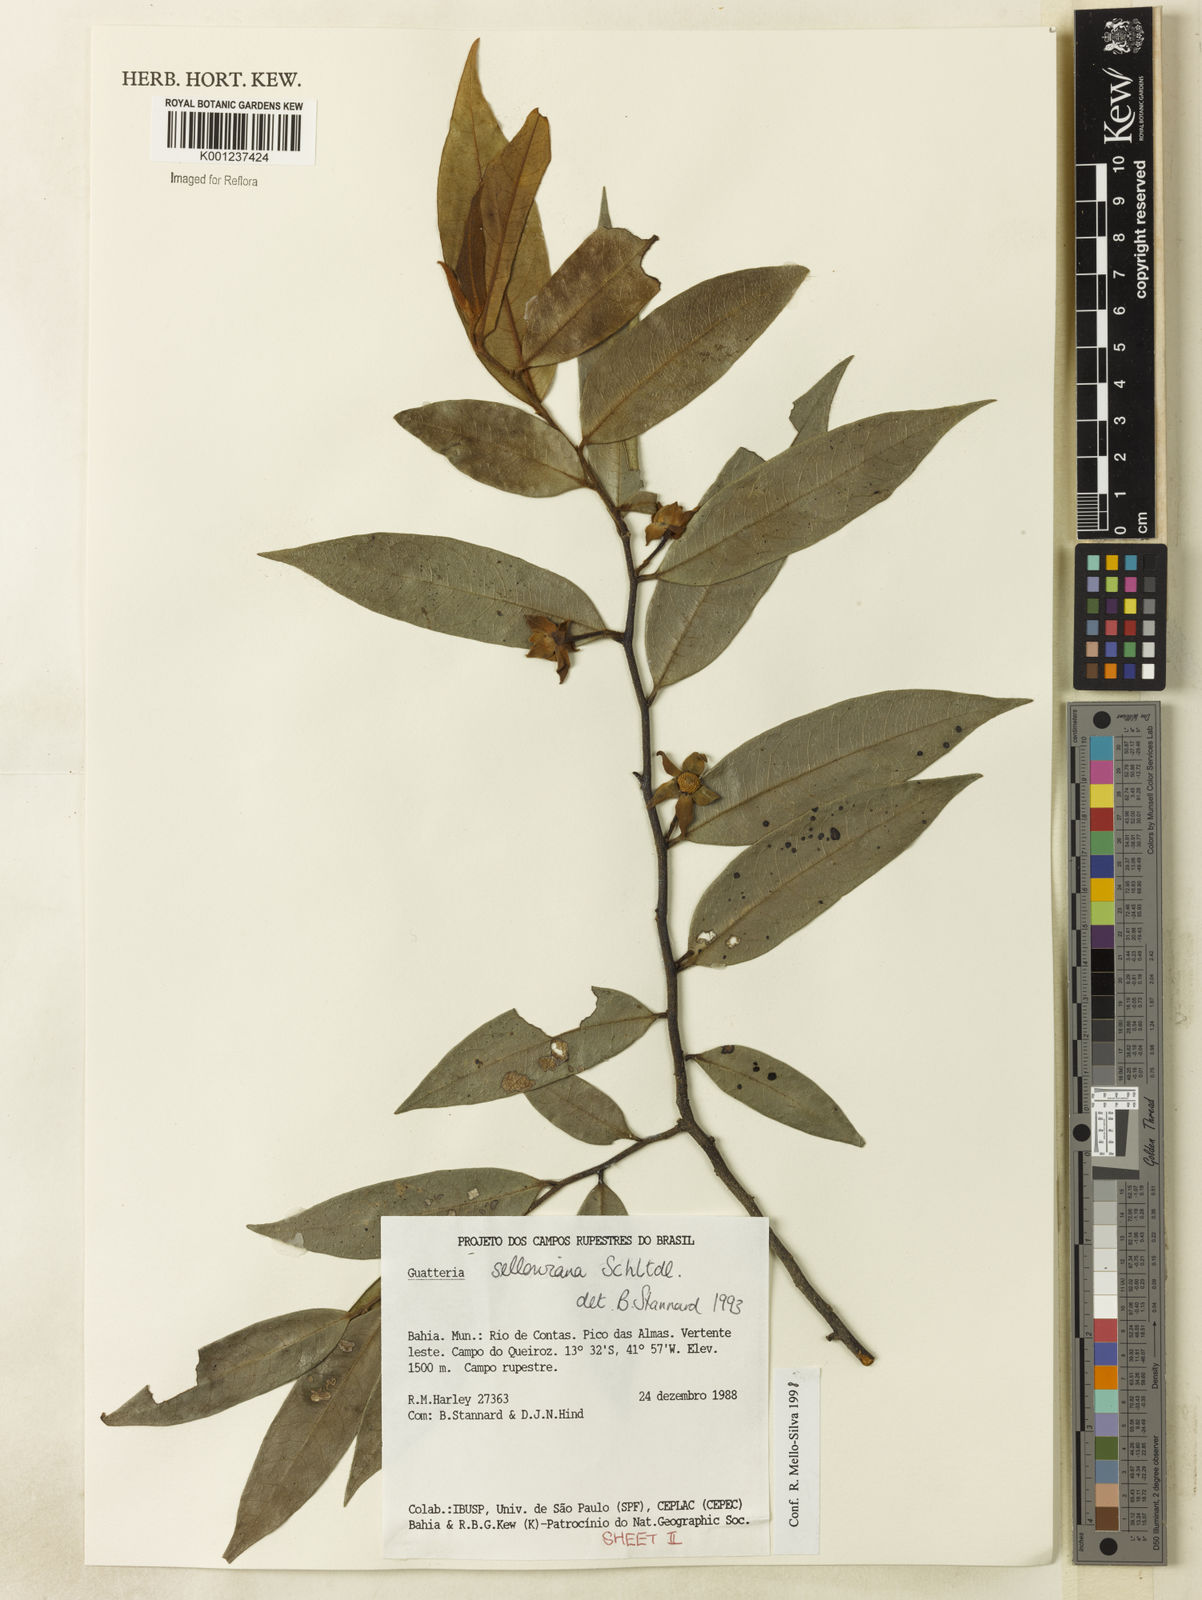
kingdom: Plantae
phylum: Tracheophyta
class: Magnoliopsida
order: Magnoliales
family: Annonaceae
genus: Guatteria
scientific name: Guatteria sellowiana
